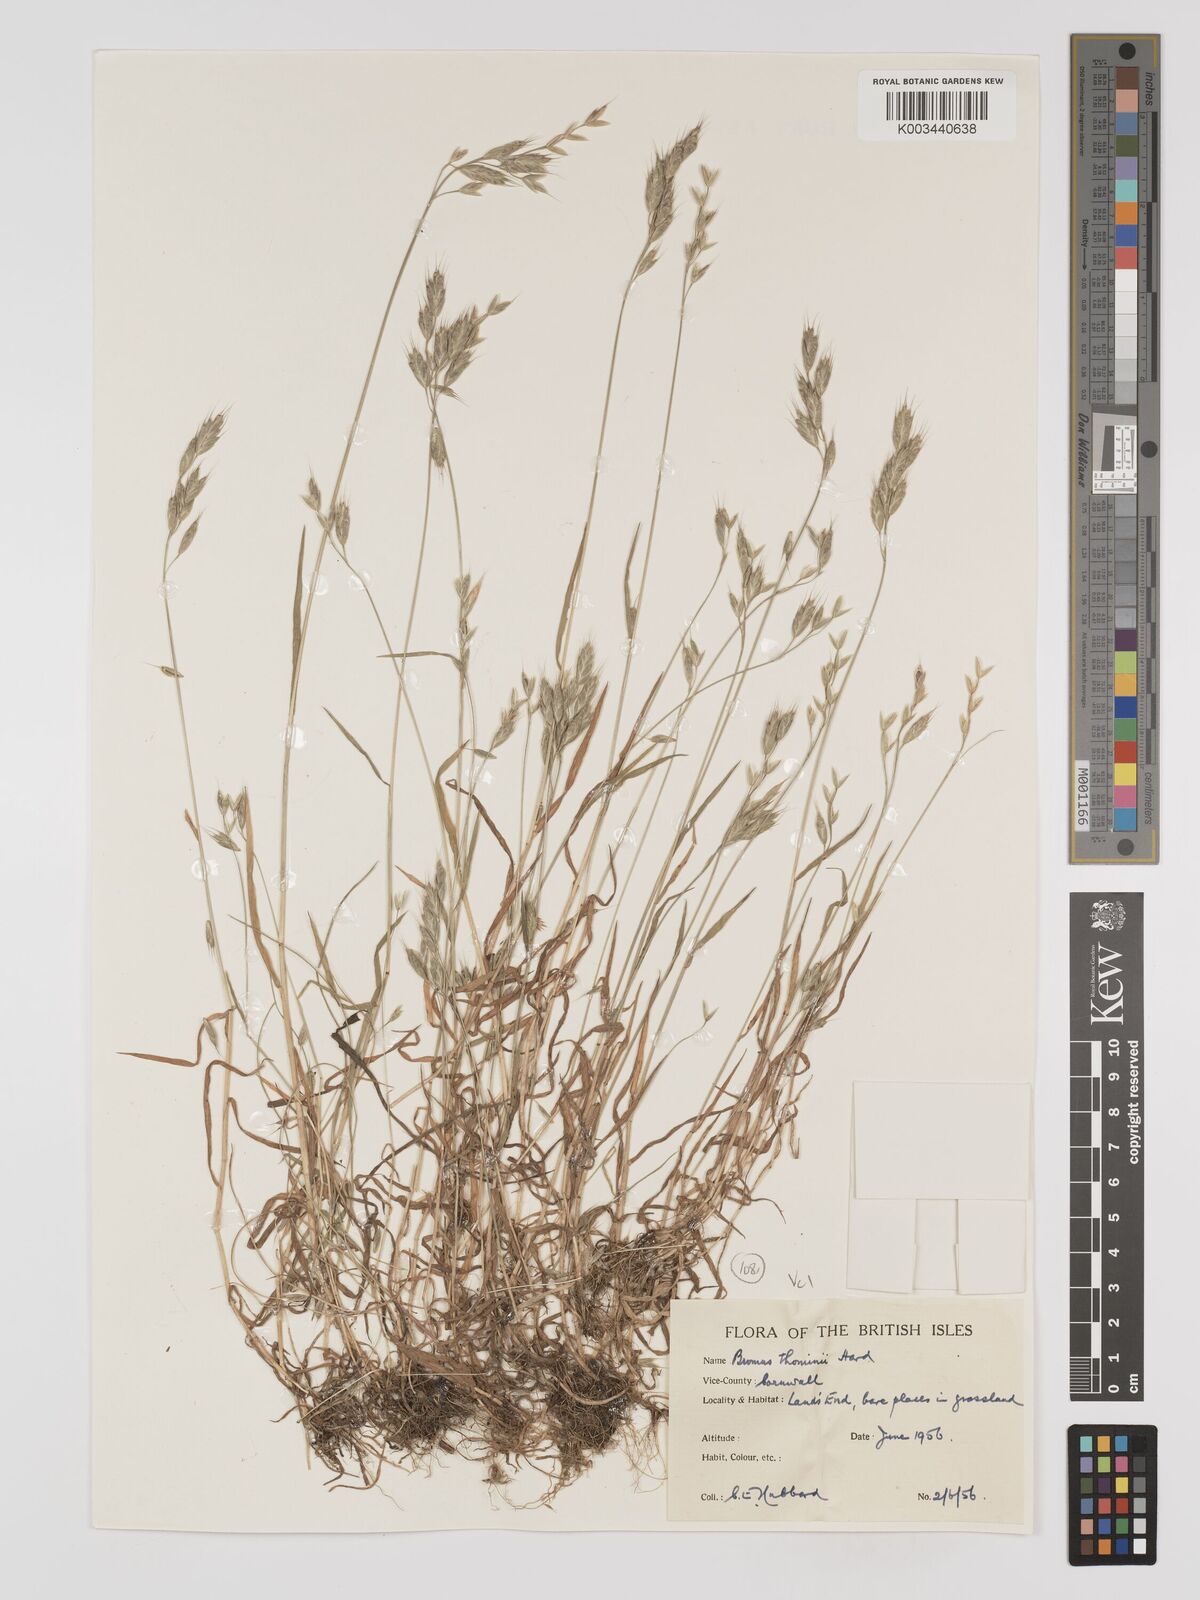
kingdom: Plantae
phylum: Tracheophyta
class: Liliopsida
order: Poales
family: Poaceae
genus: Bromus
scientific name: Bromus hordeaceus
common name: Soft brome
